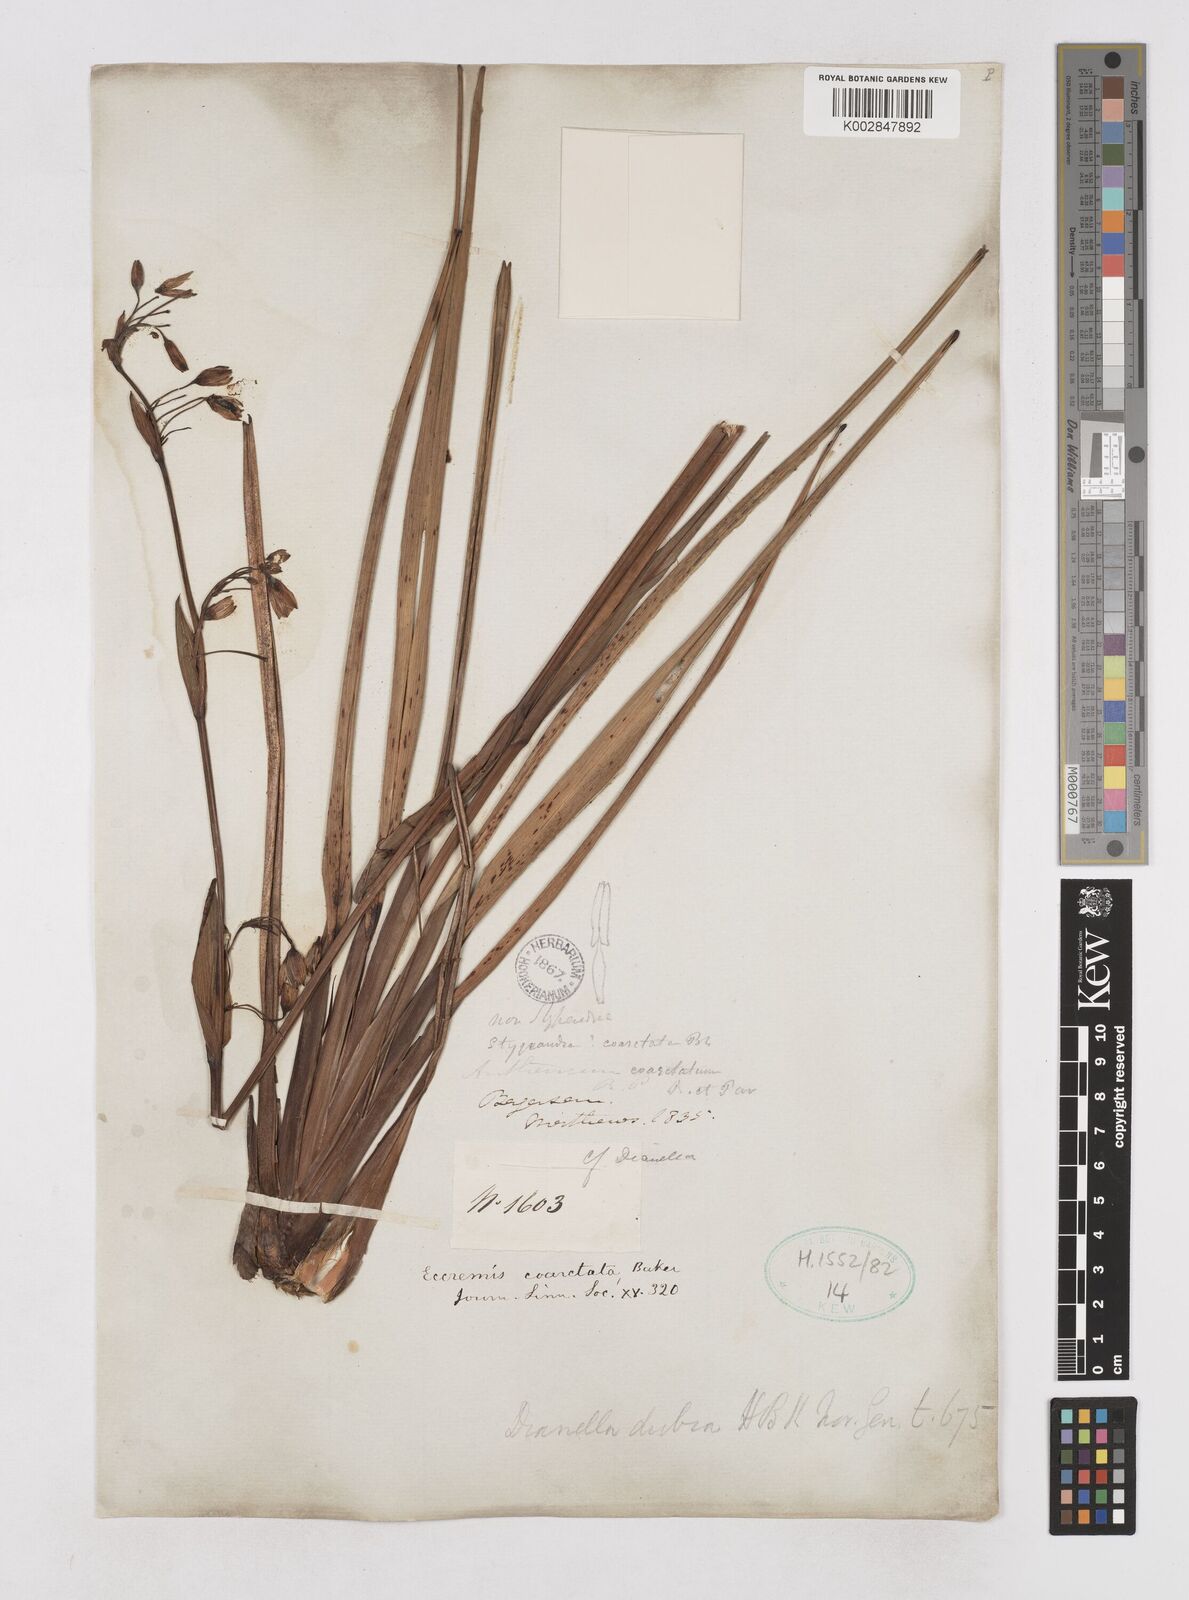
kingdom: Plantae
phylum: Tracheophyta
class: Liliopsida
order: Asparagales
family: Asphodelaceae
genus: Excremis
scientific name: Excremis coarctata
